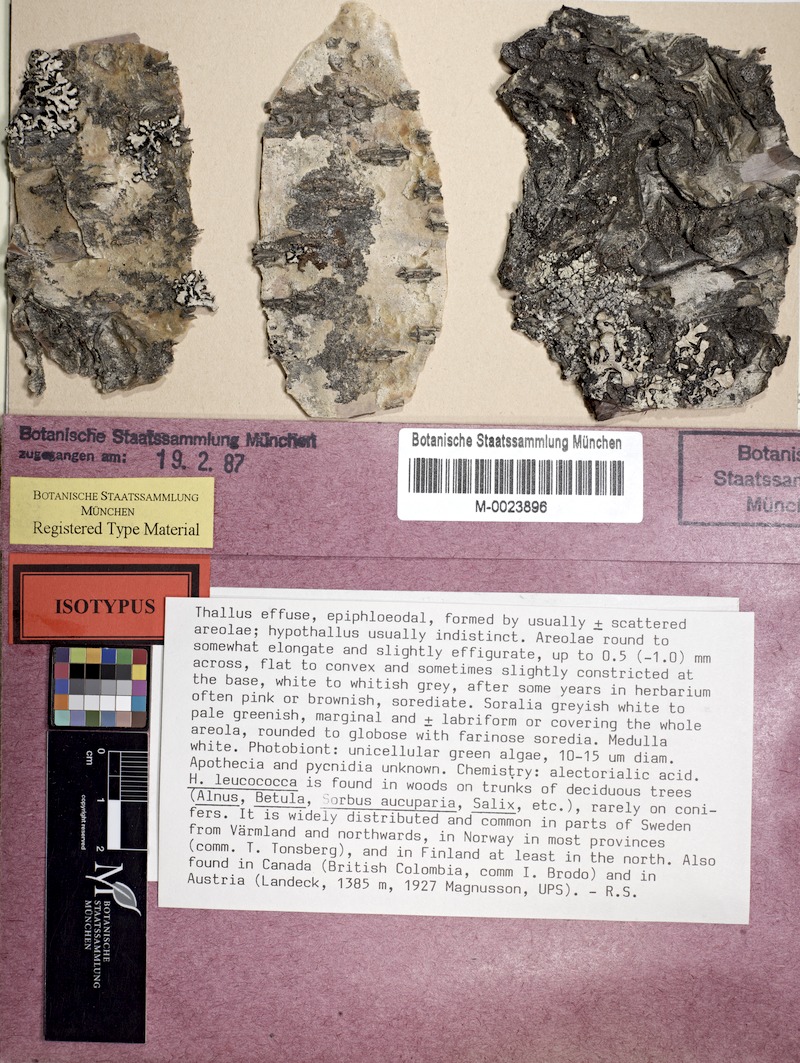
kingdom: Fungi
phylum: Ascomycota
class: Lecanoromycetes
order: Rhizocarpales
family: Sporastatiaceae
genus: Toensbergia
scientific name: Toensbergia leucococca
